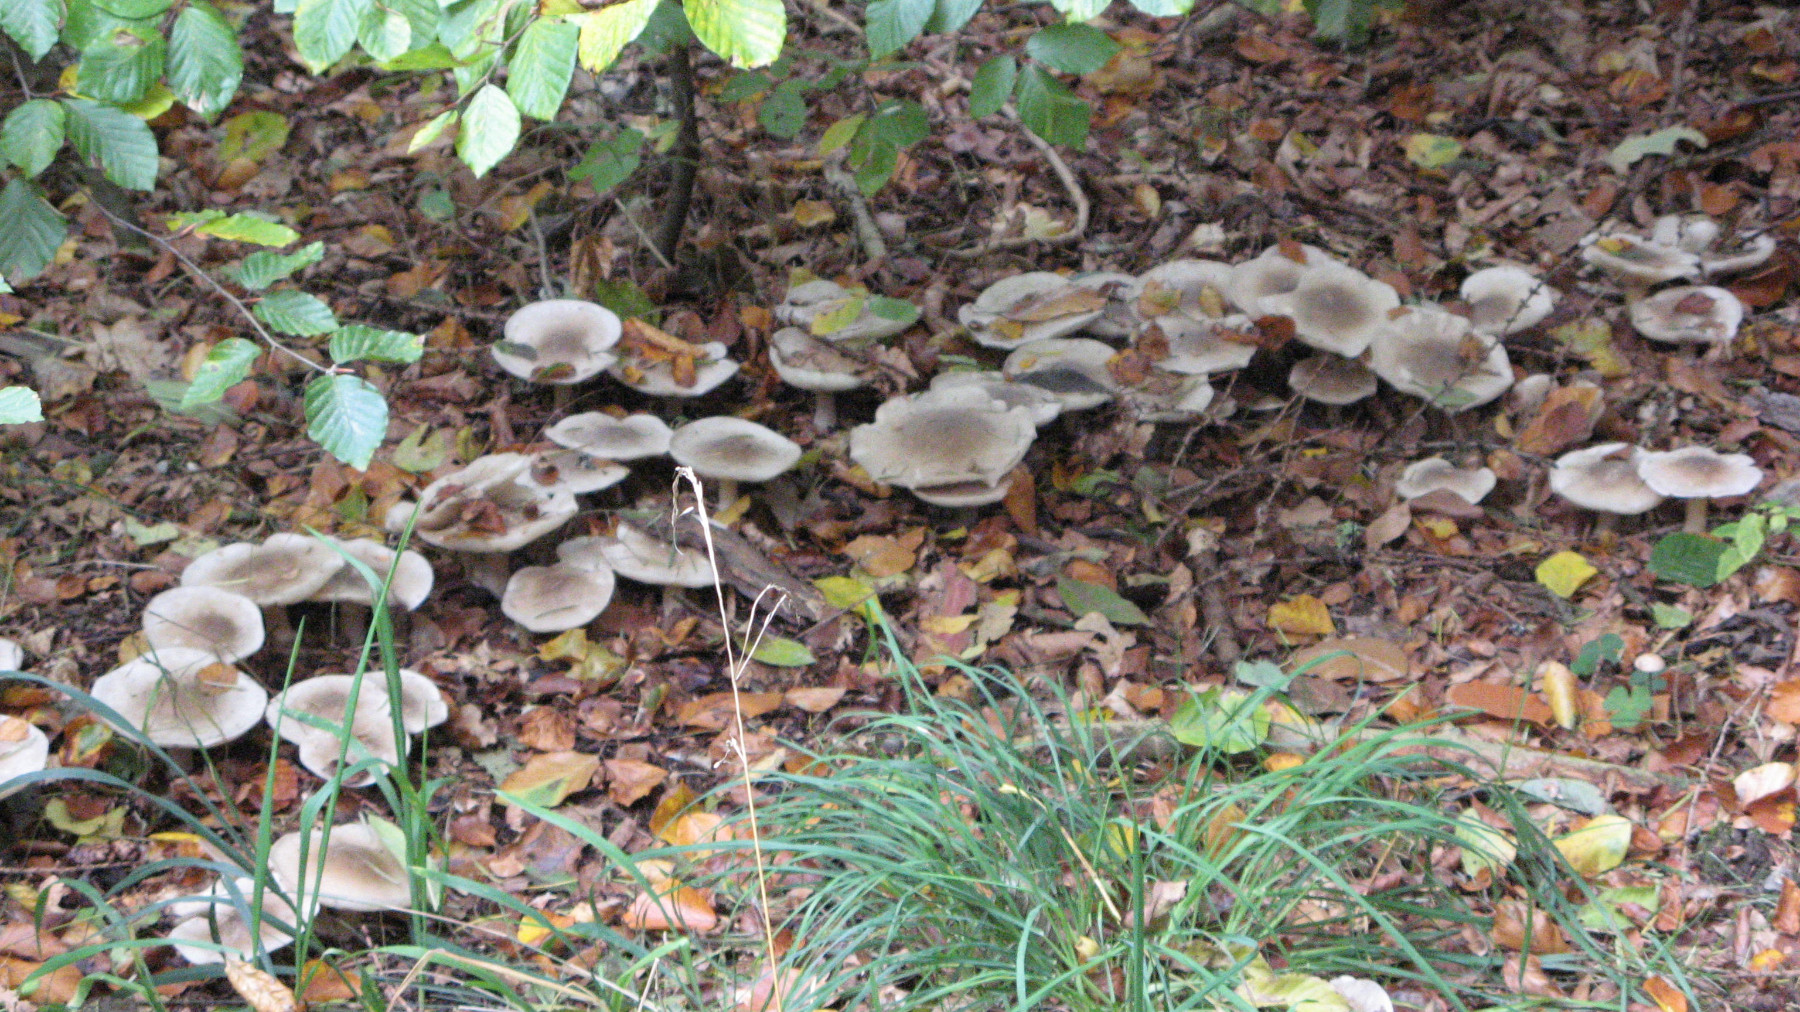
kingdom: Fungi
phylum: Basidiomycota
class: Agaricomycetes
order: Agaricales
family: Tricholomataceae
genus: Clitocybe
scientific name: Clitocybe nebularis
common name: tåge-tragthat
